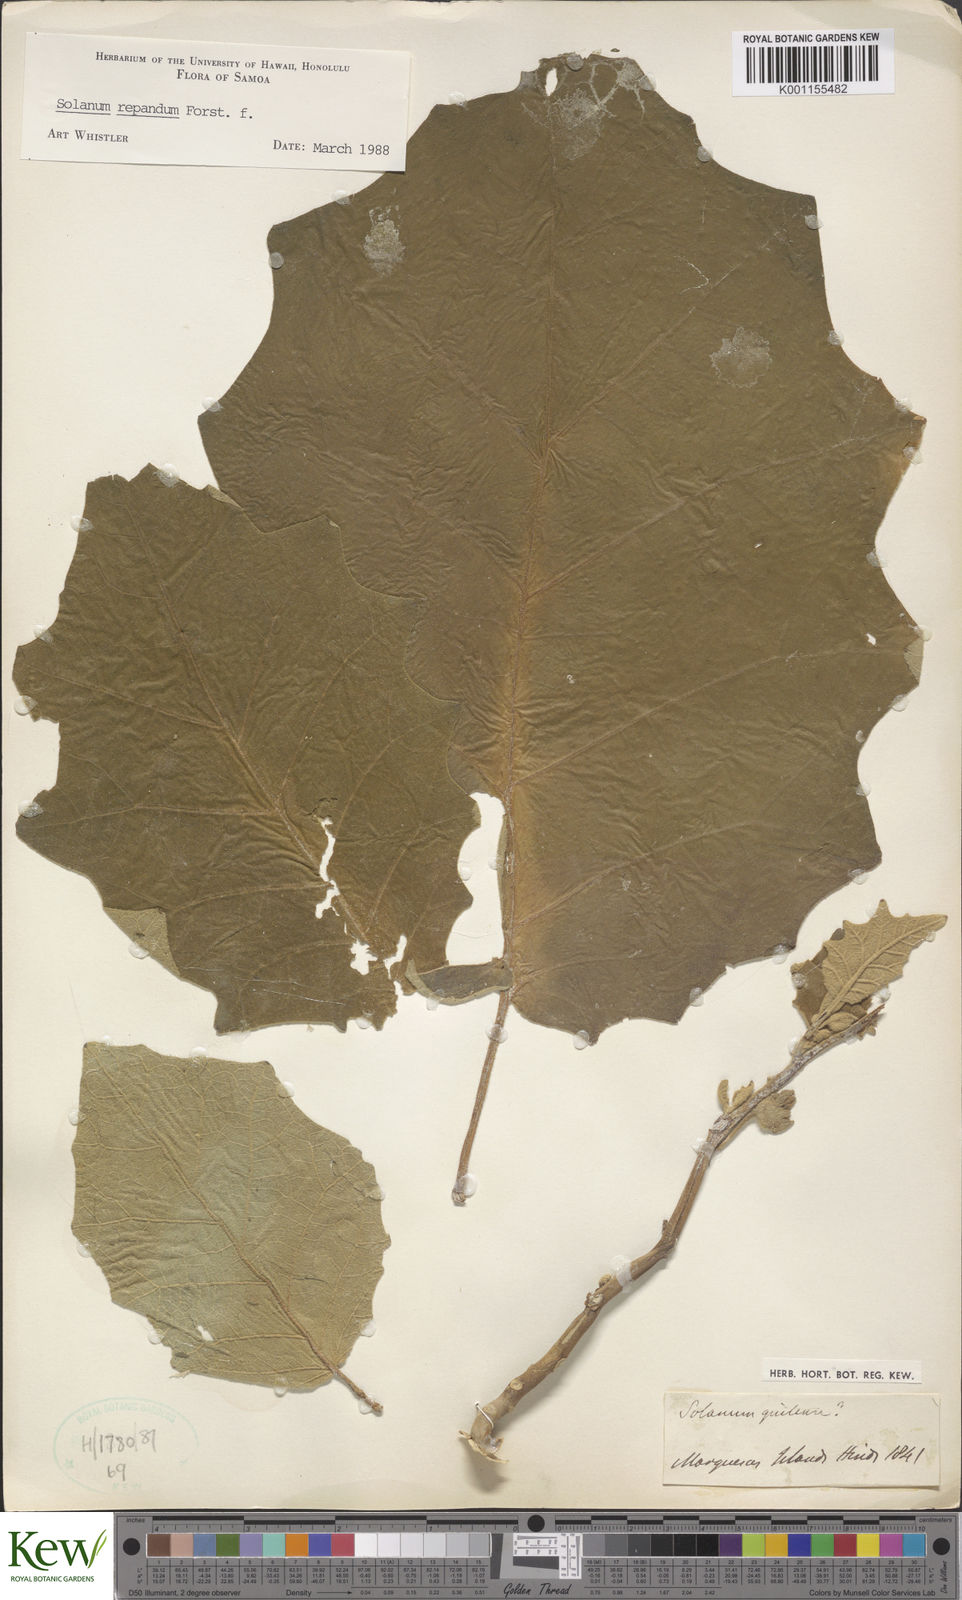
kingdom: Plantae
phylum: Tracheophyta
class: Magnoliopsida
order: Solanales
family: Solanaceae
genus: Solanum
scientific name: Solanum repandum
